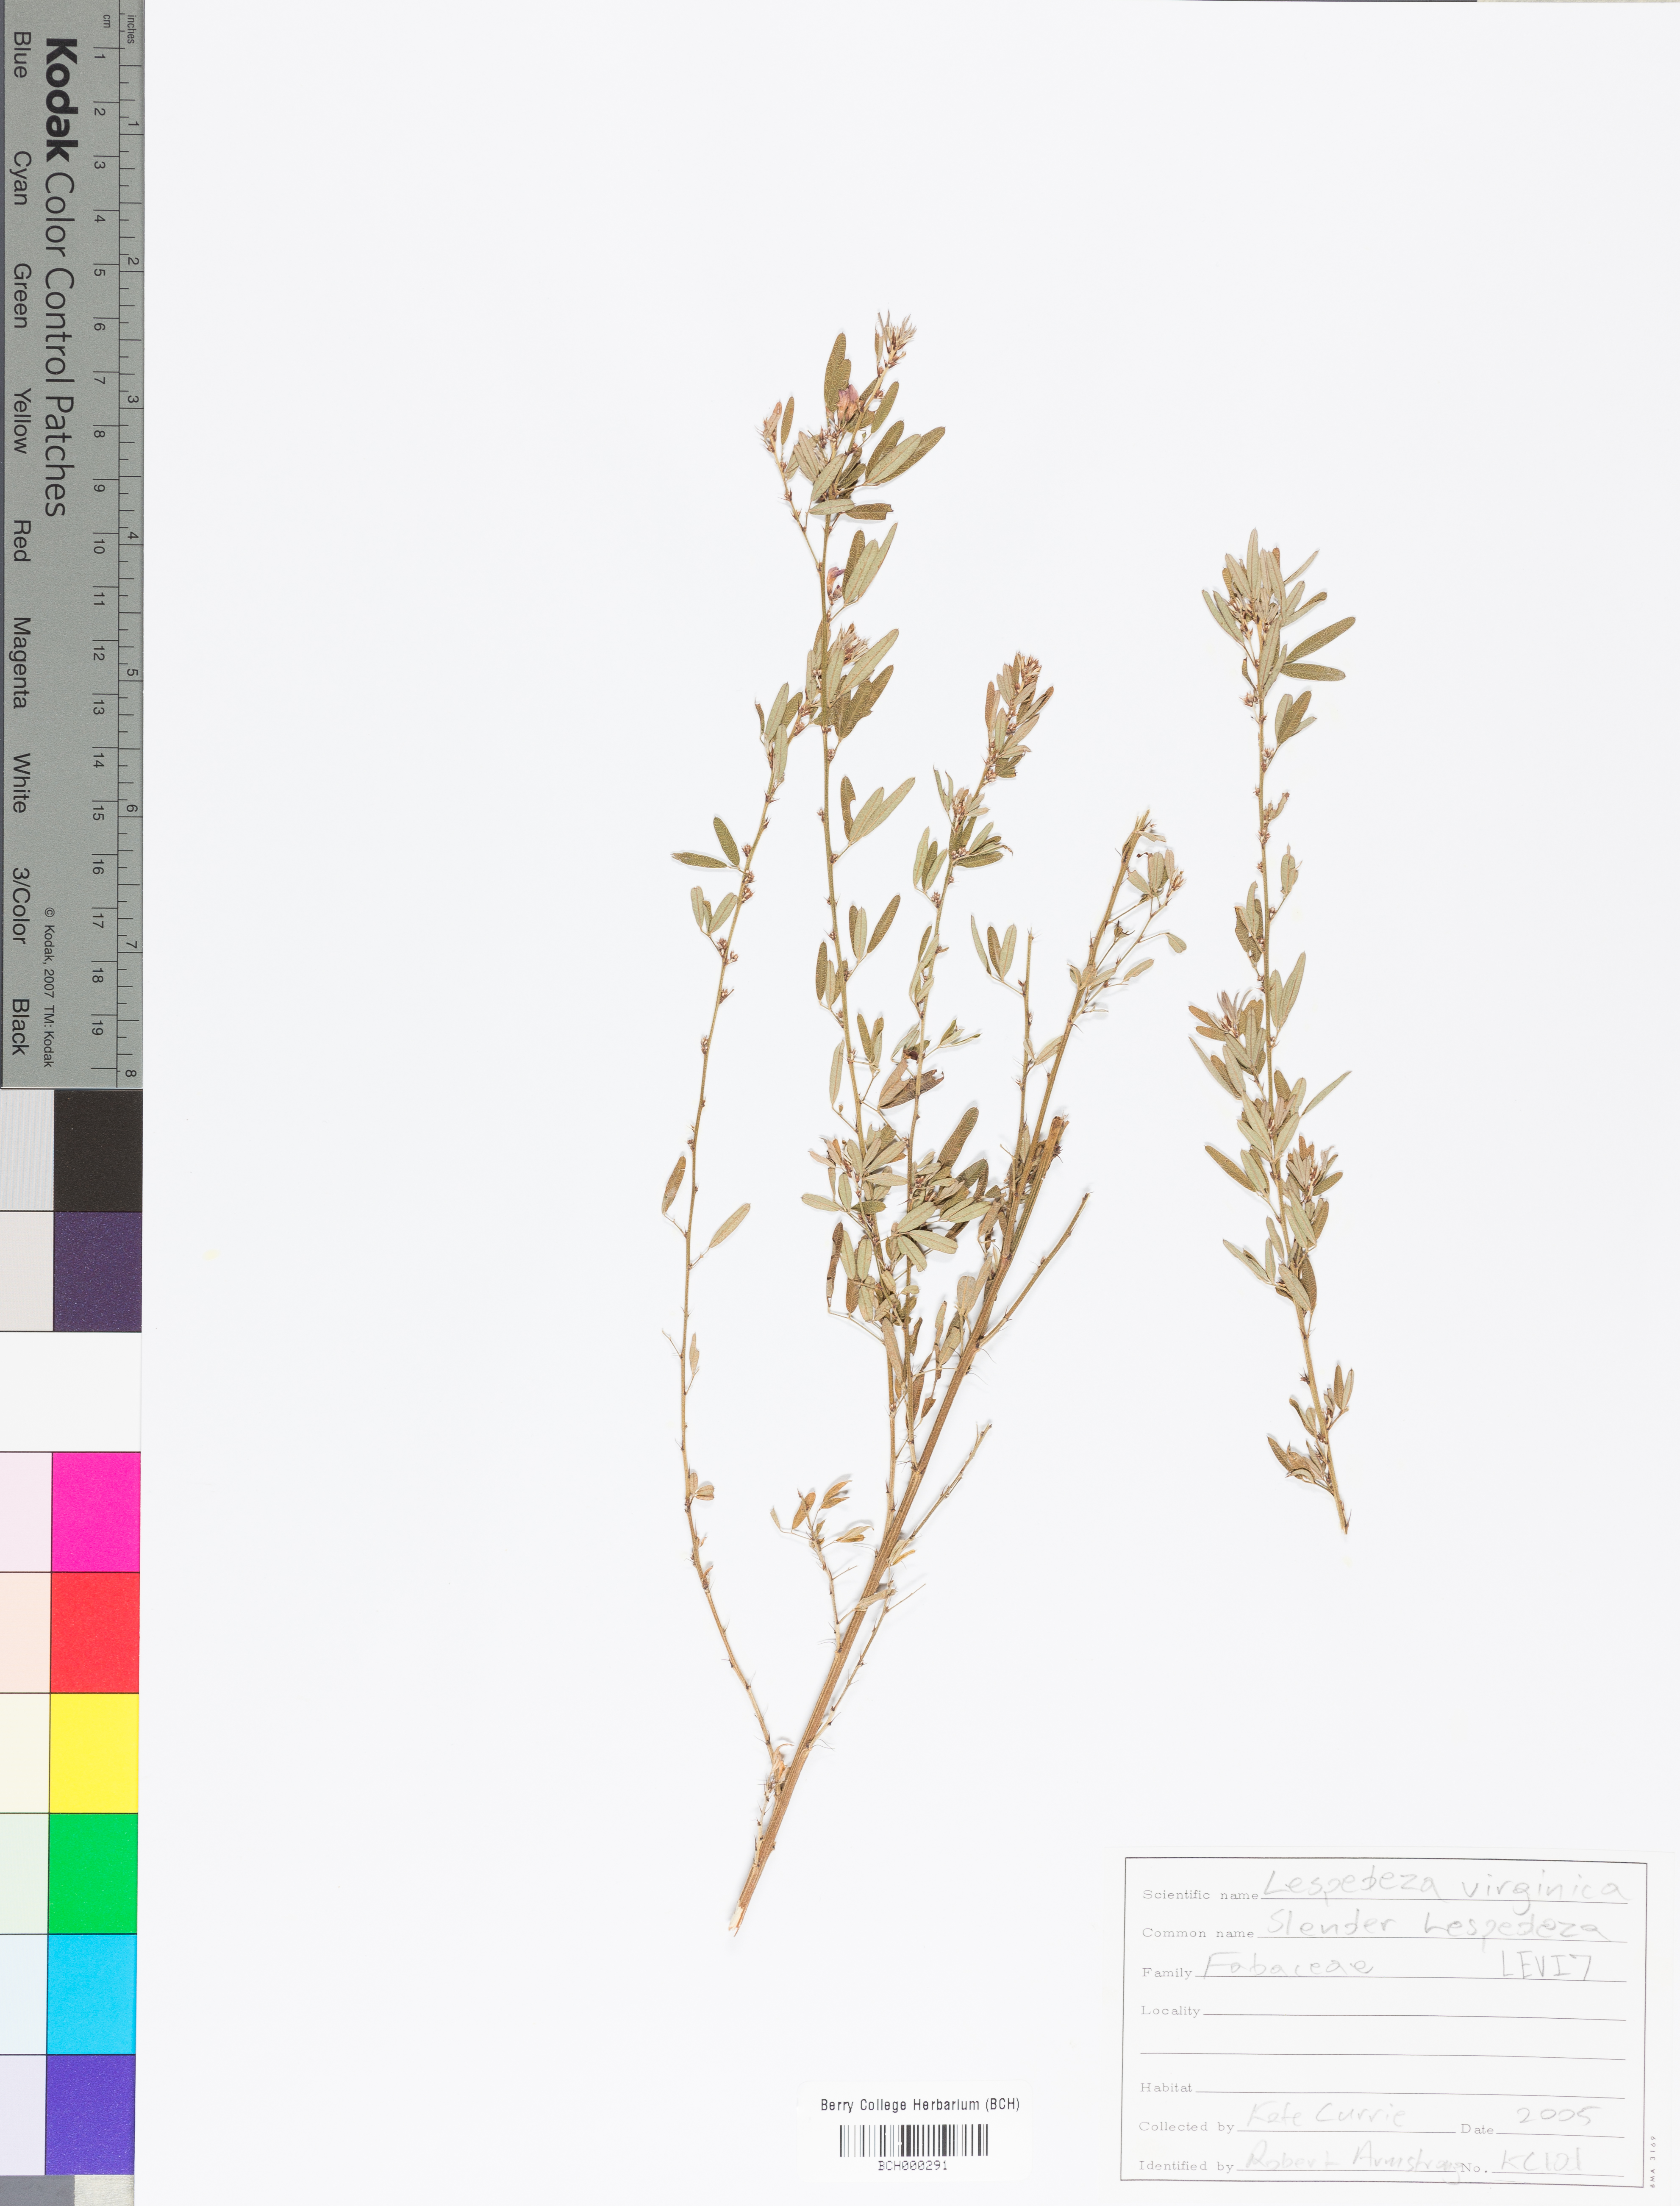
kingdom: Plantae
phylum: Tracheophyta
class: Magnoliopsida
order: Fabales
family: Fabaceae
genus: Lespedeza
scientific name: Lespedeza virginica
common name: Slender bush-clover
